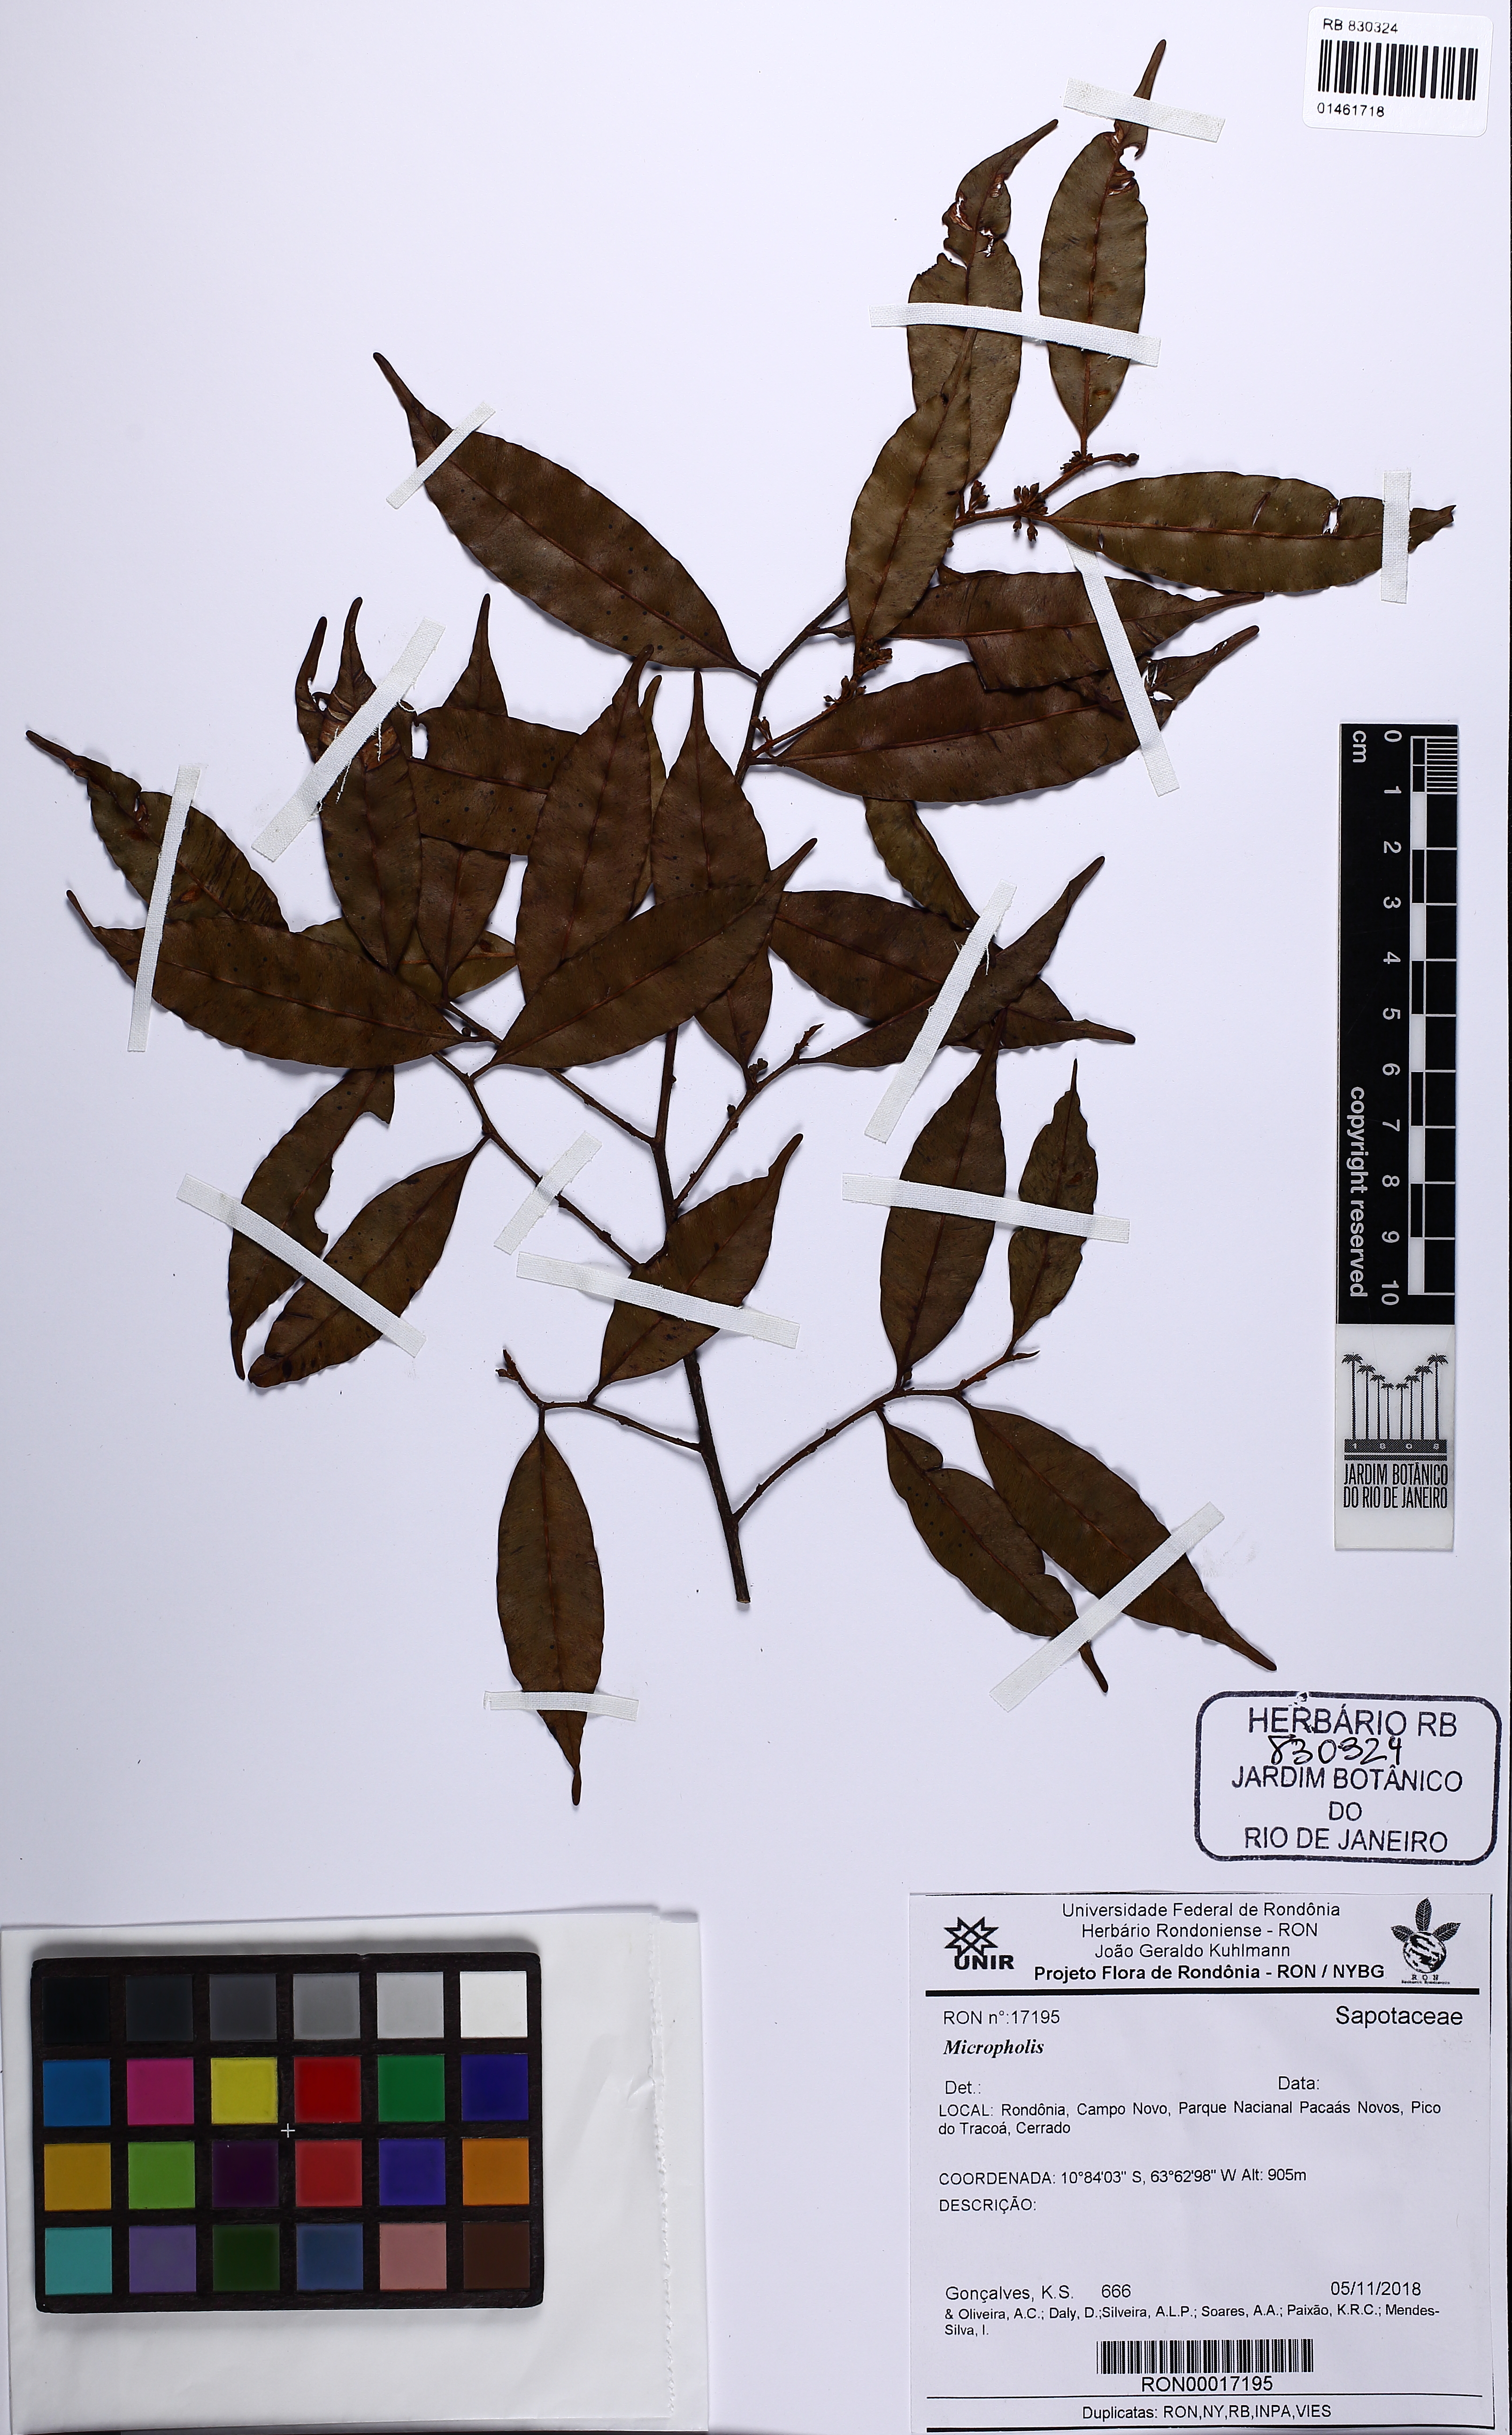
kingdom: Plantae
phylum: Tracheophyta
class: Magnoliopsida
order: Ericales
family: Sapotaceae
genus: Micropholis
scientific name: Micropholis
